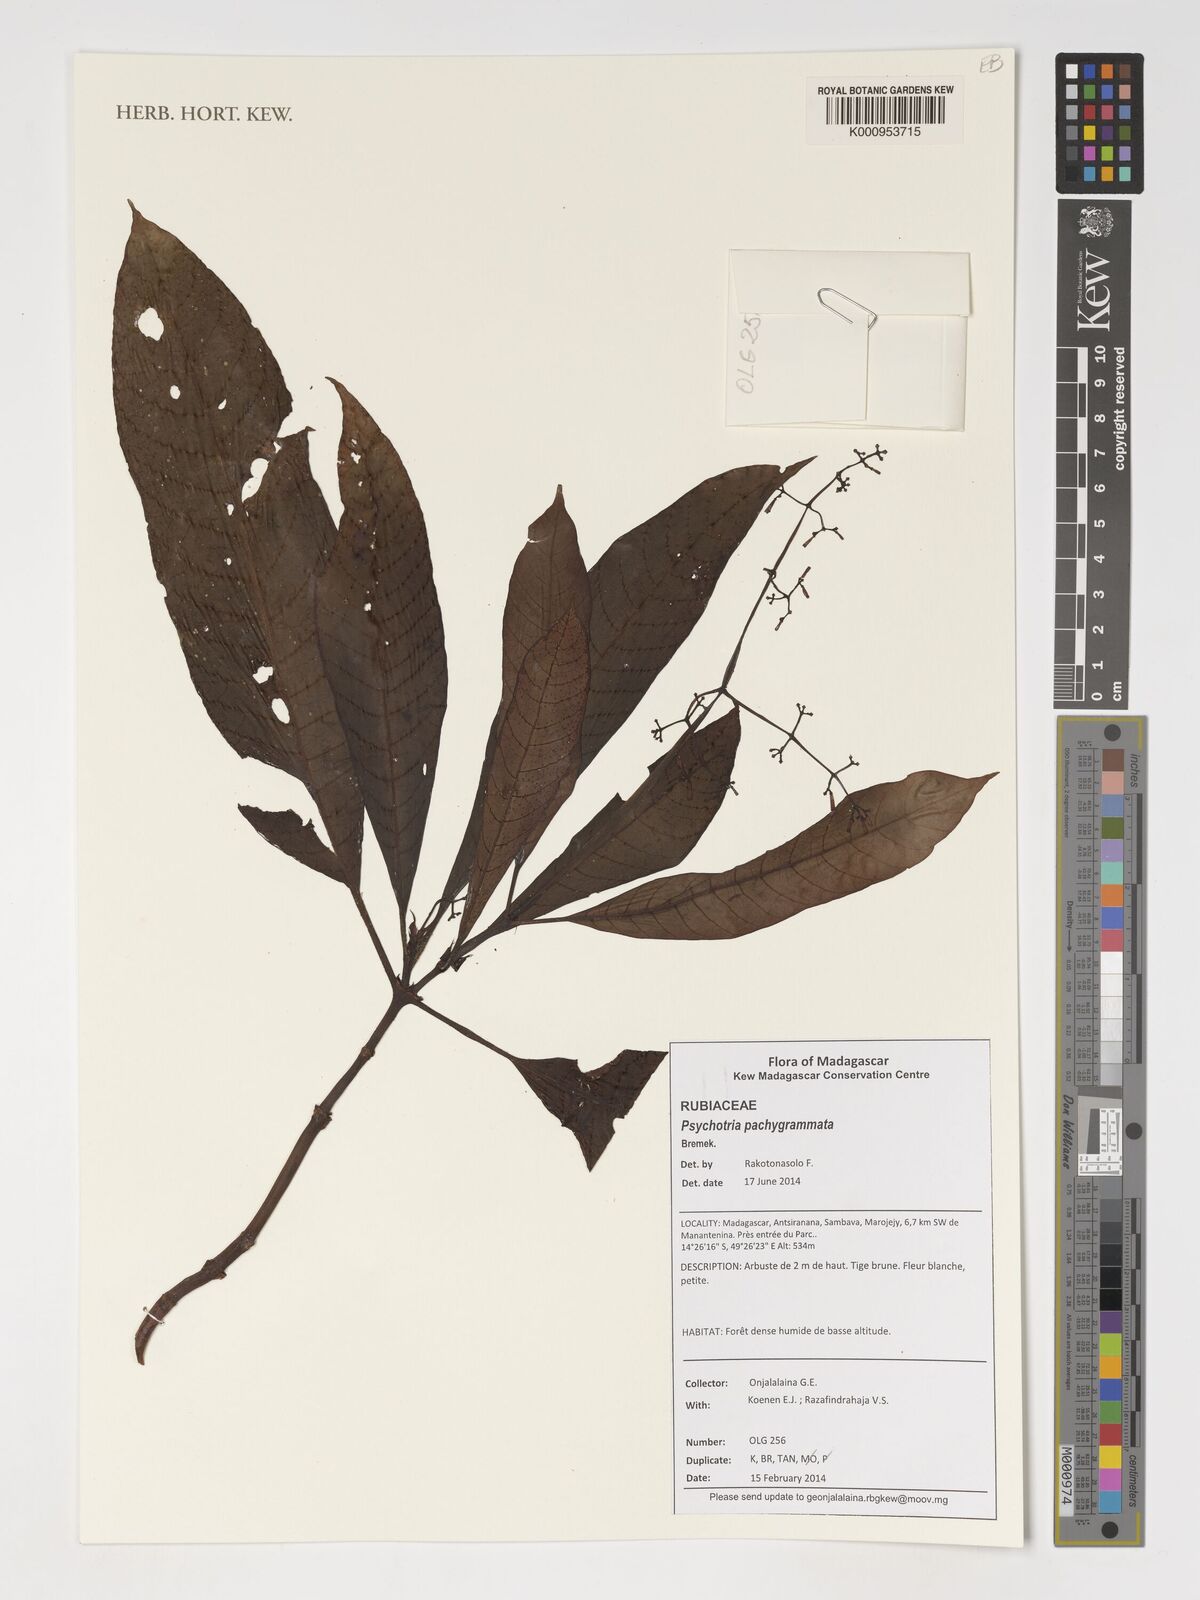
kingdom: Plantae
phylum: Tracheophyta
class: Magnoliopsida
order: Gentianales
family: Rubiaceae
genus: Psychotria
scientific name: Psychotria pachygrammata
